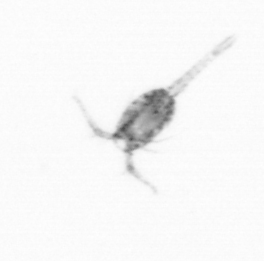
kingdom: Animalia
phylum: Arthropoda
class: Copepoda
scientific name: Copepoda
